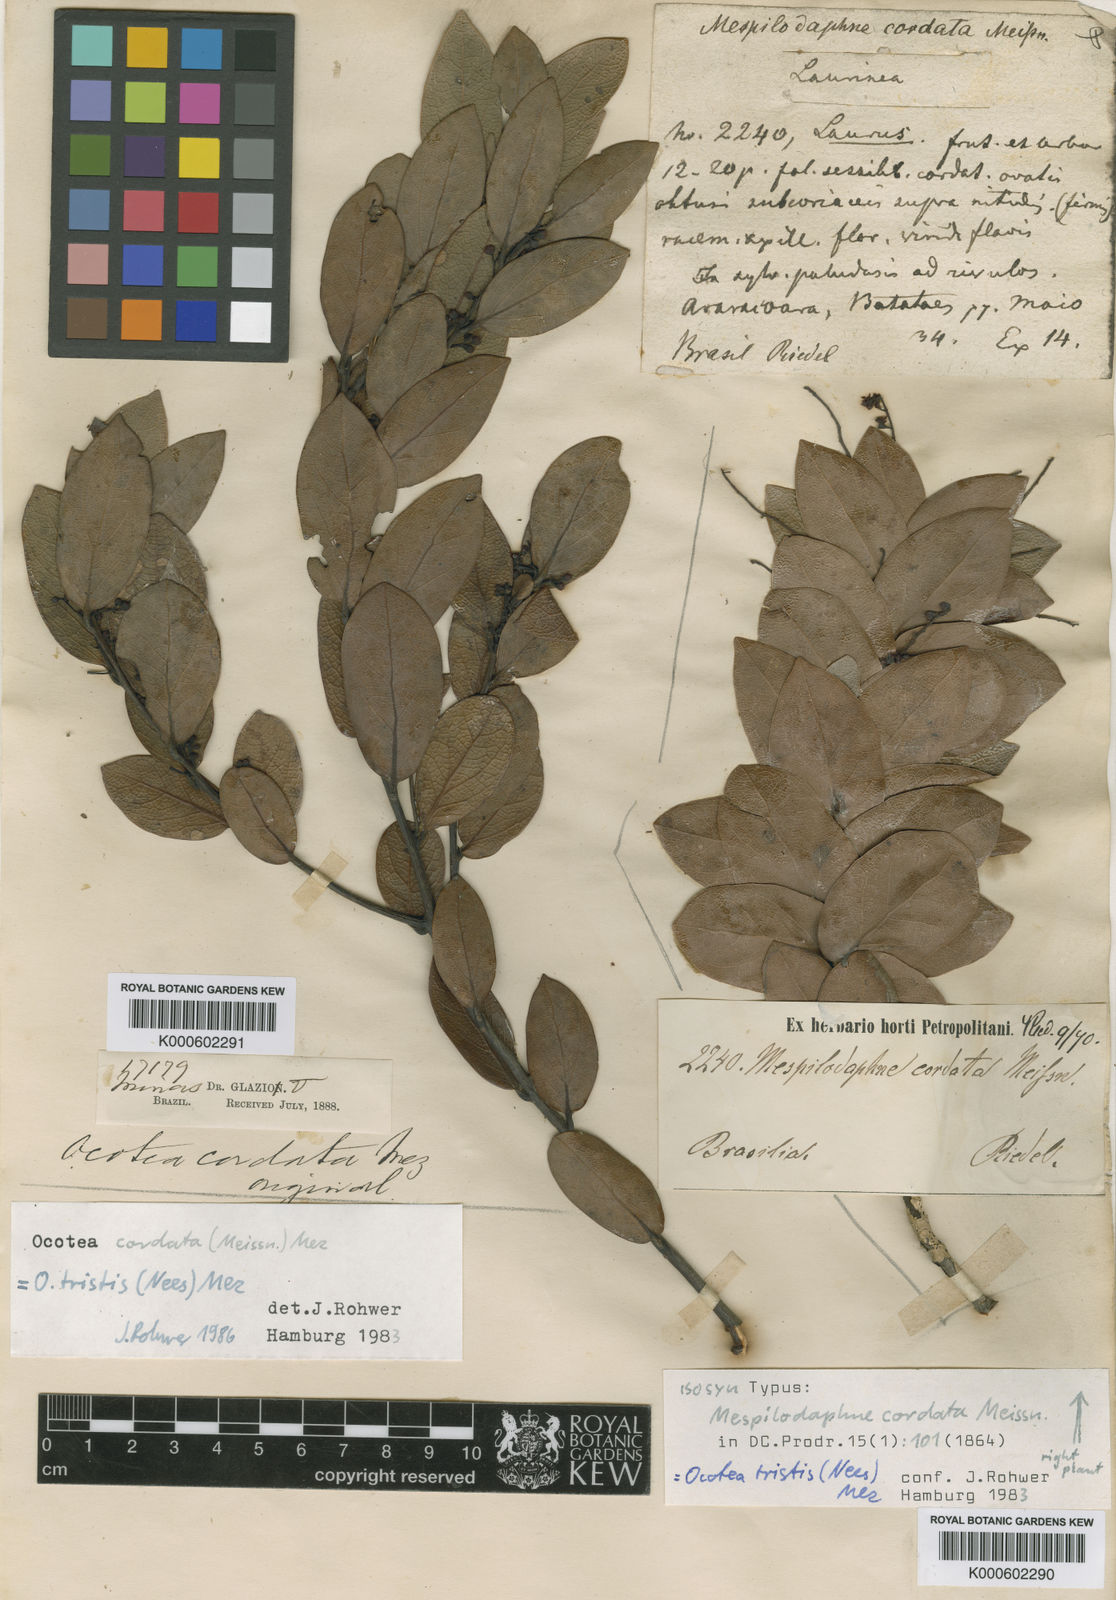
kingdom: Plantae
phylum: Tracheophyta
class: Magnoliopsida
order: Laurales
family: Lauraceae
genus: Mespilodaphne
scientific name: Mespilodaphne tristis
